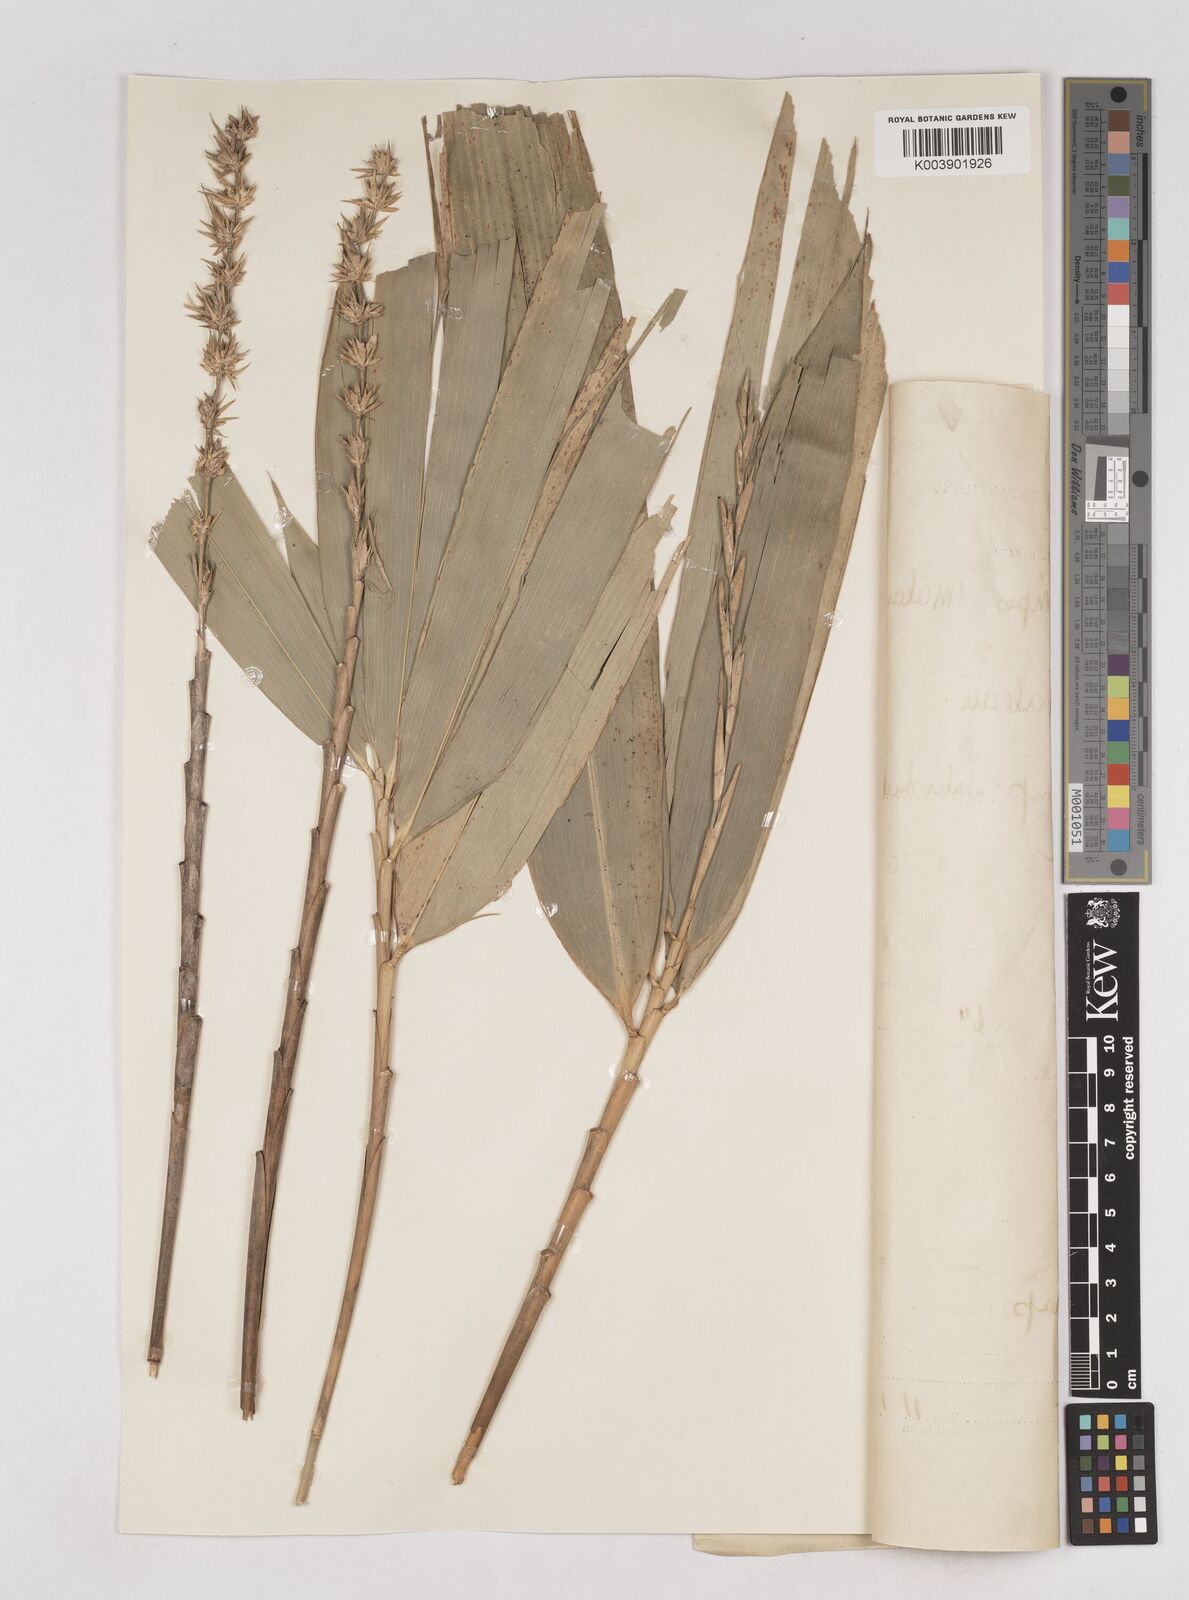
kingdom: Plantae
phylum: Tracheophyta
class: Liliopsida
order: Poales
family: Poaceae
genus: Schizostachyum
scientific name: Schizostachyum brachycladum
